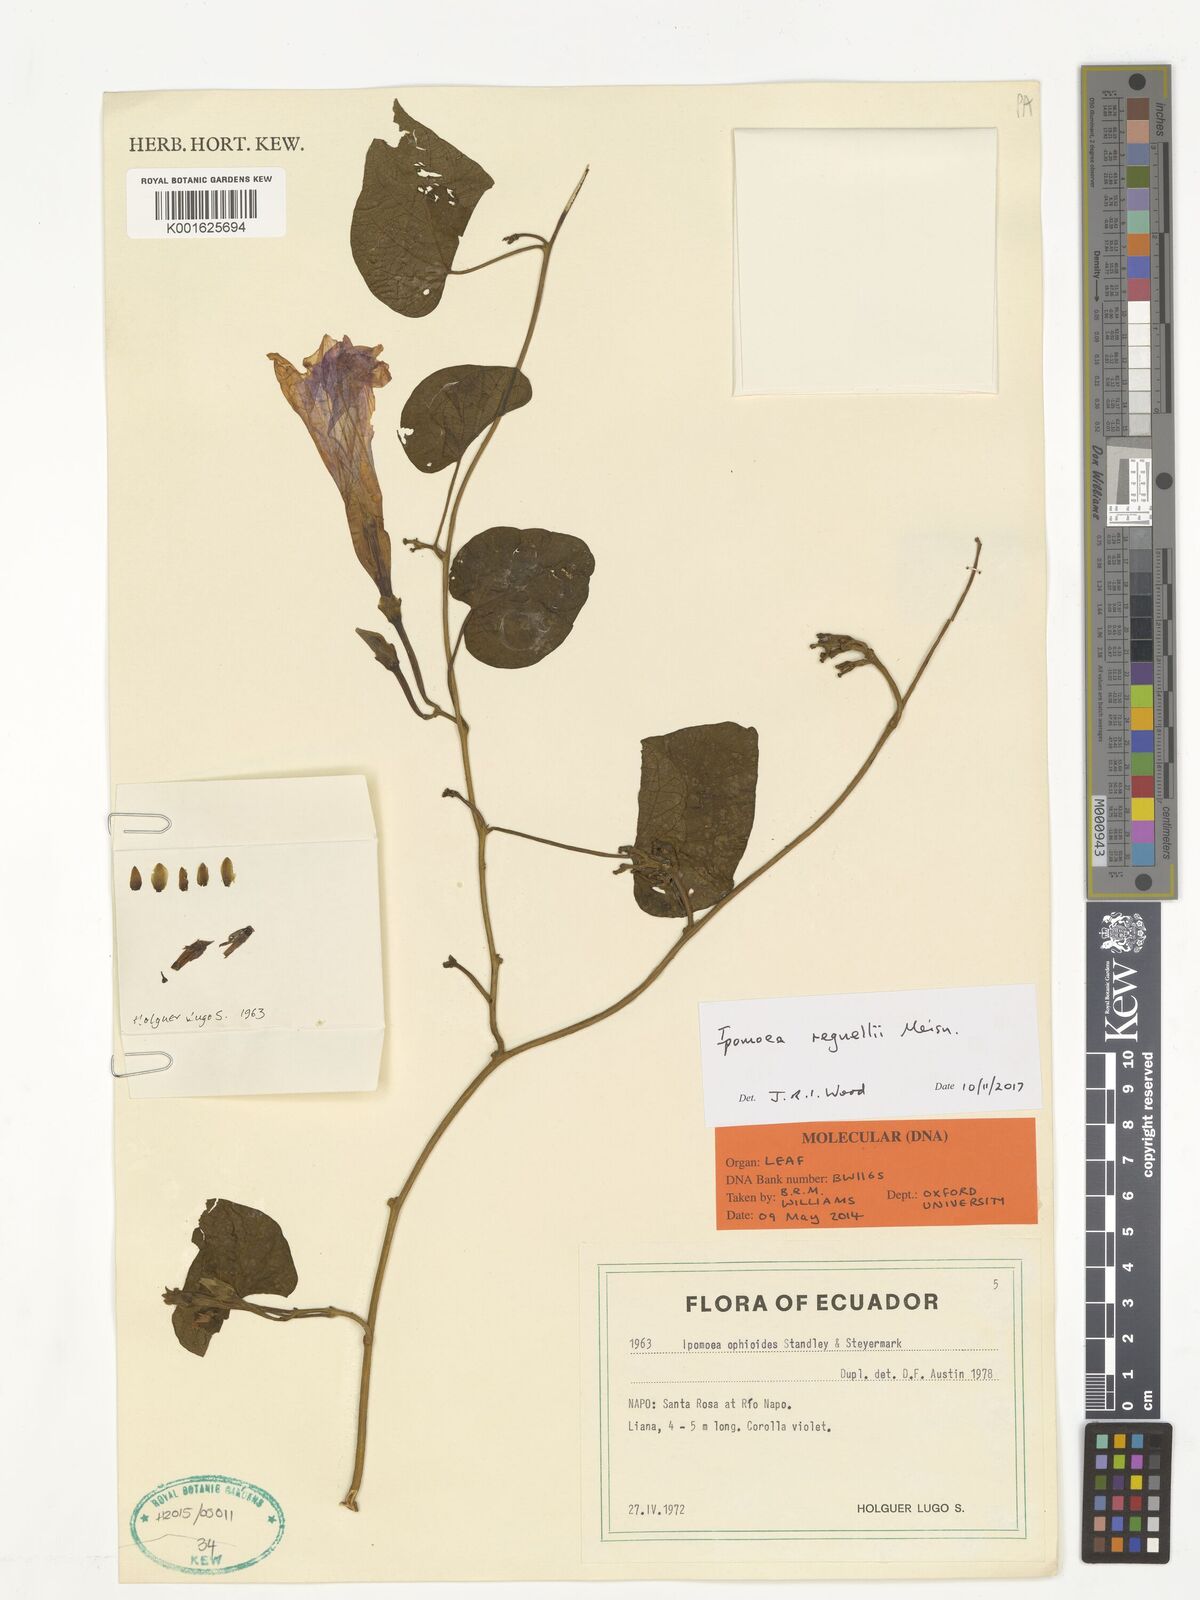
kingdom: Plantae
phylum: Tracheophyta
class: Magnoliopsida
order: Solanales
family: Convolvulaceae
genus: Ipomoea
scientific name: Ipomoea regnellii
